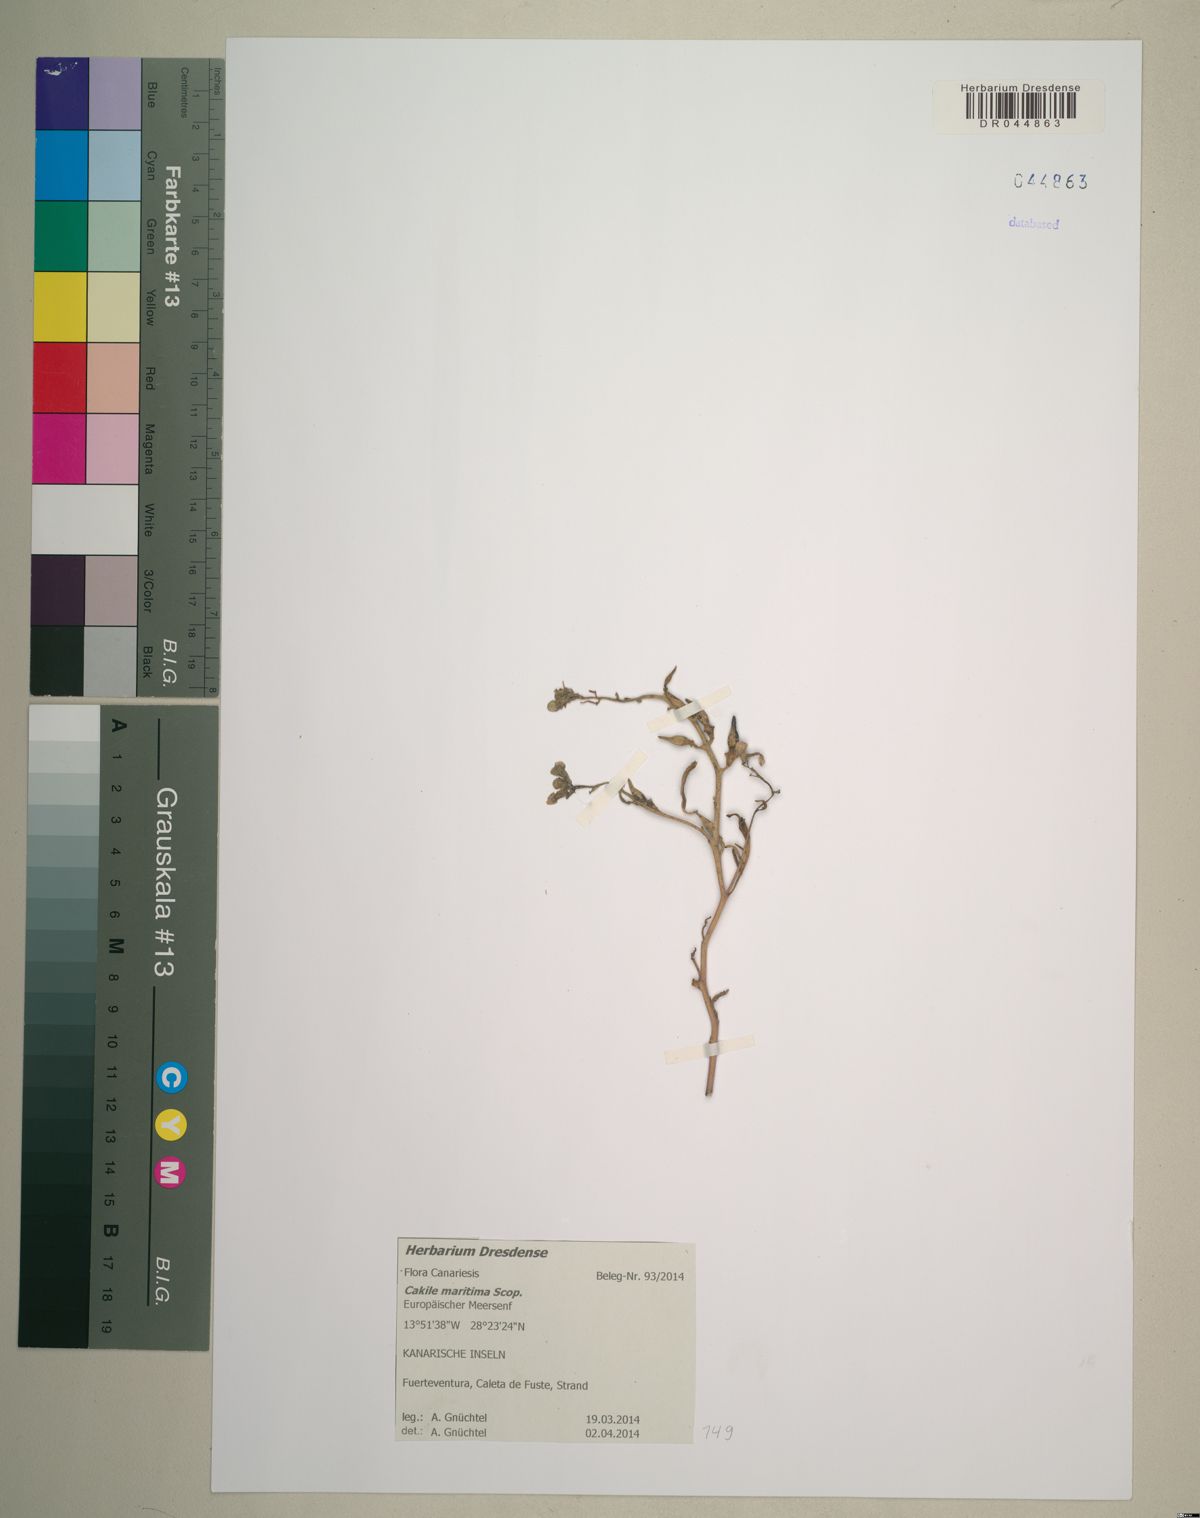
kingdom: Plantae
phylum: Tracheophyta
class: Magnoliopsida
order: Brassicales
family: Brassicaceae
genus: Cakile
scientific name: Cakile maritima
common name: Sea rocket
